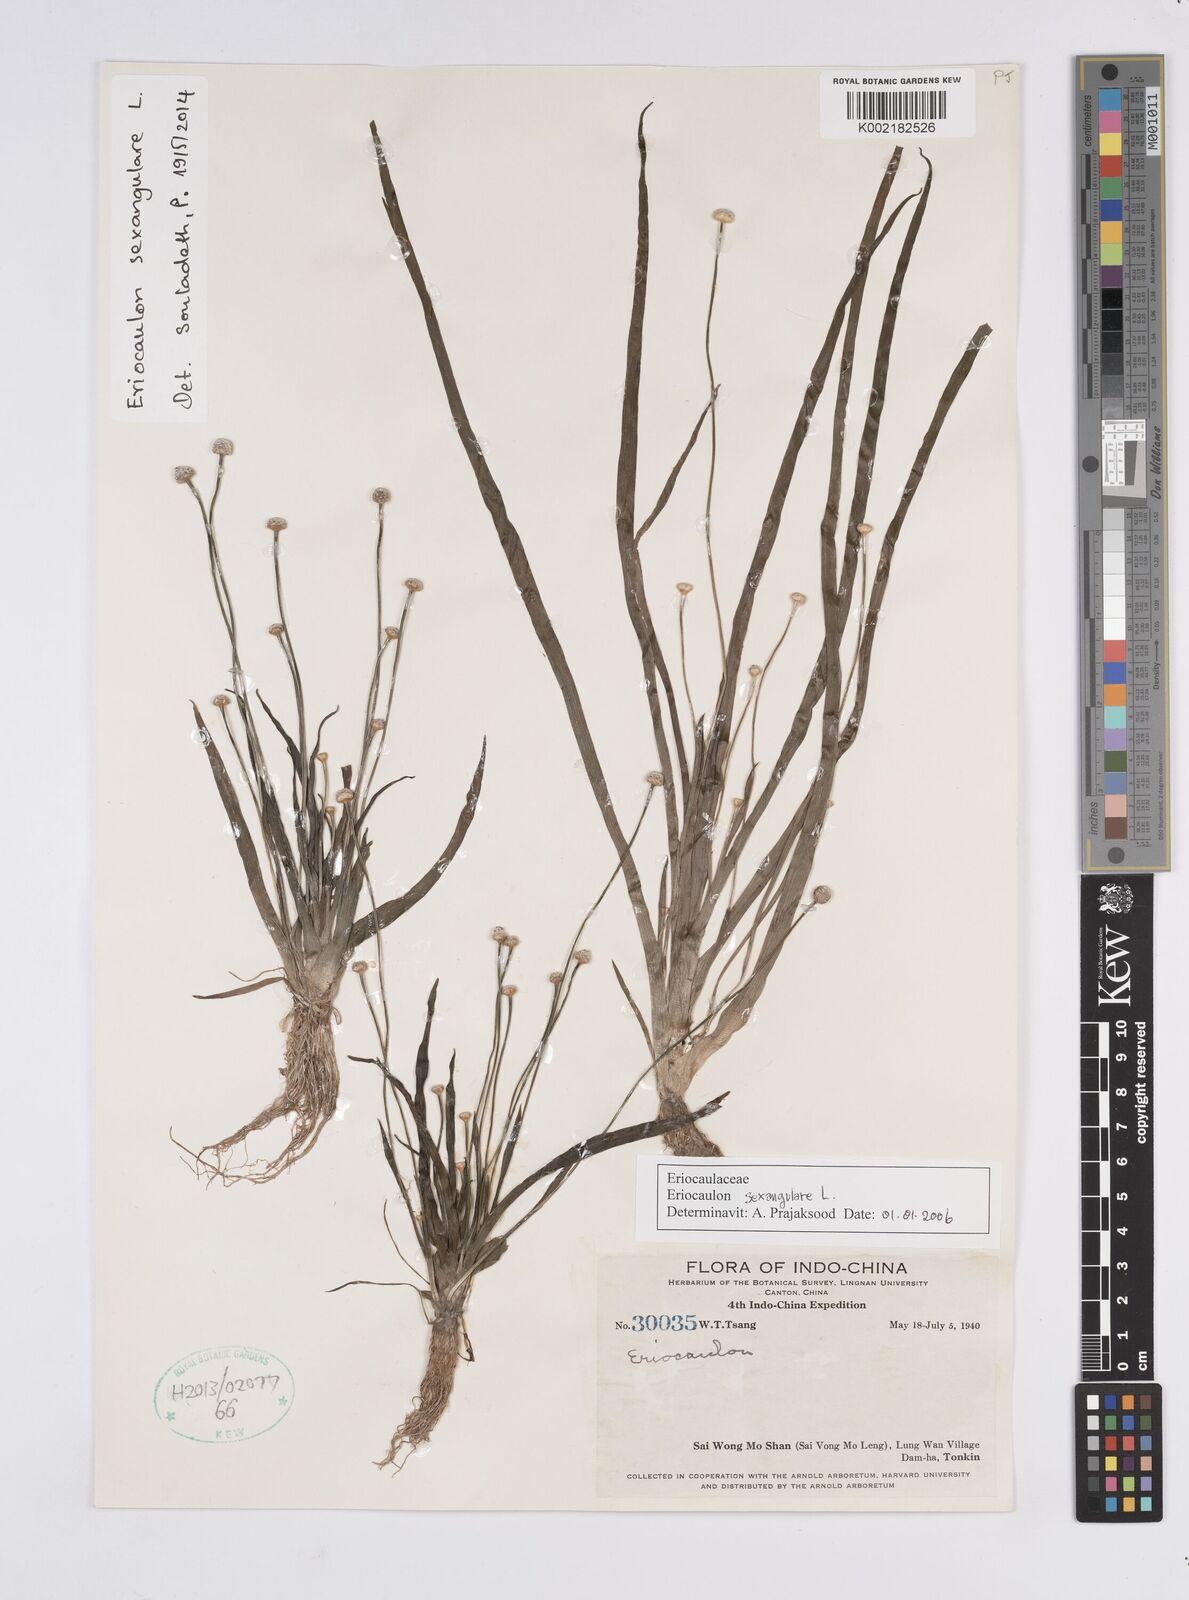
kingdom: Plantae
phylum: Tracheophyta
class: Liliopsida
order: Poales
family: Eriocaulaceae
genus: Eriocaulon
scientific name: Eriocaulon sexangulare
